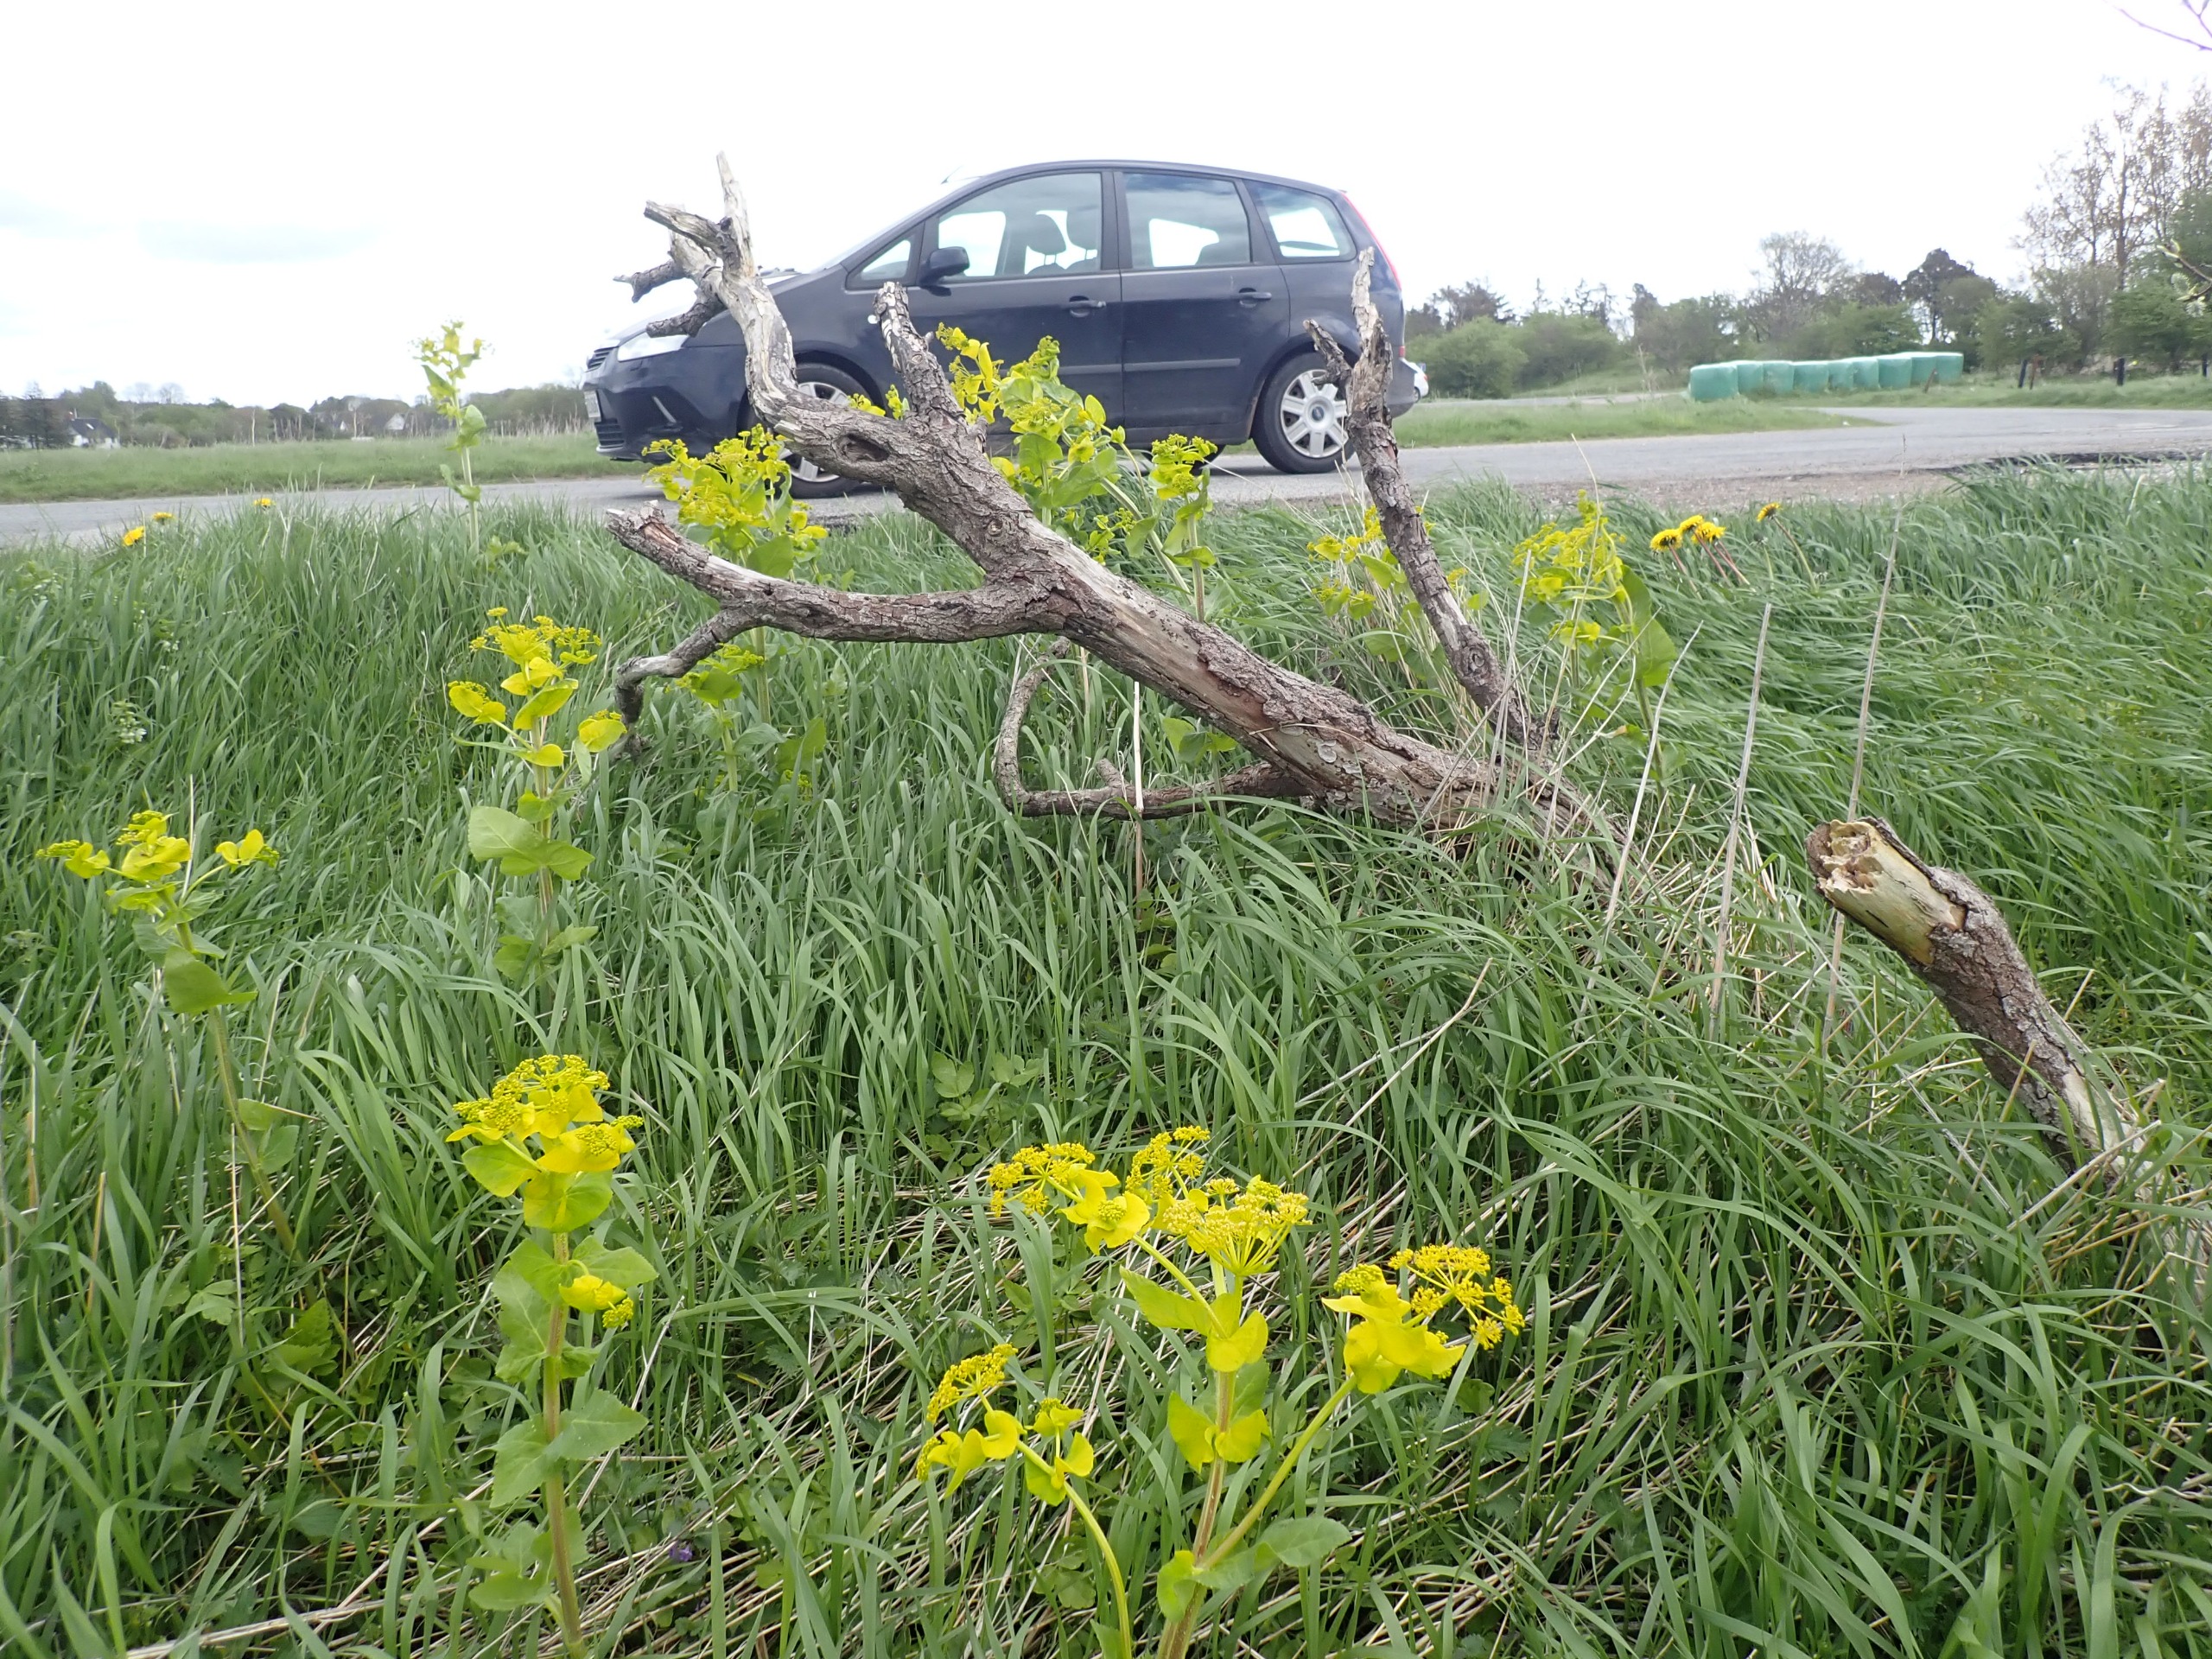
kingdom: Plantae
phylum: Tracheophyta
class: Magnoliopsida
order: Apiales
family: Apiaceae
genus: Smyrnium
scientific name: Smyrnium perfoliatum
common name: Lundgylden
